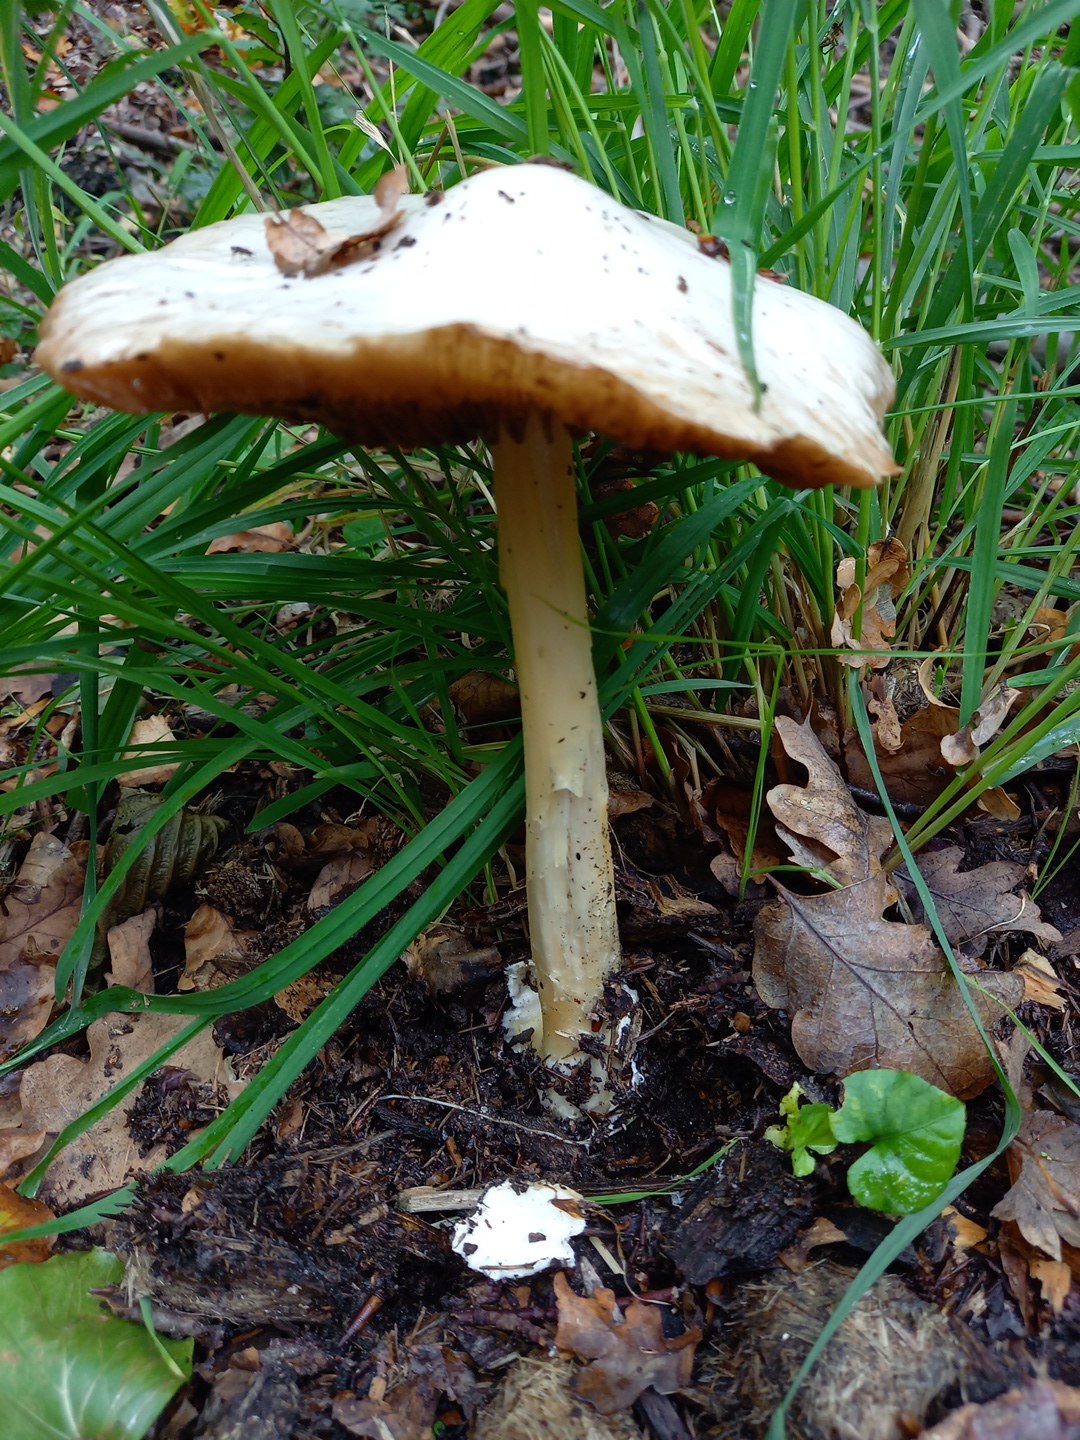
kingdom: Fungi
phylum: Basidiomycota
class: Agaricomycetes
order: Agaricales
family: Pluteaceae
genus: Volvopluteus
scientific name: Volvopluteus gloiocephalus
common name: høj posesvamp
